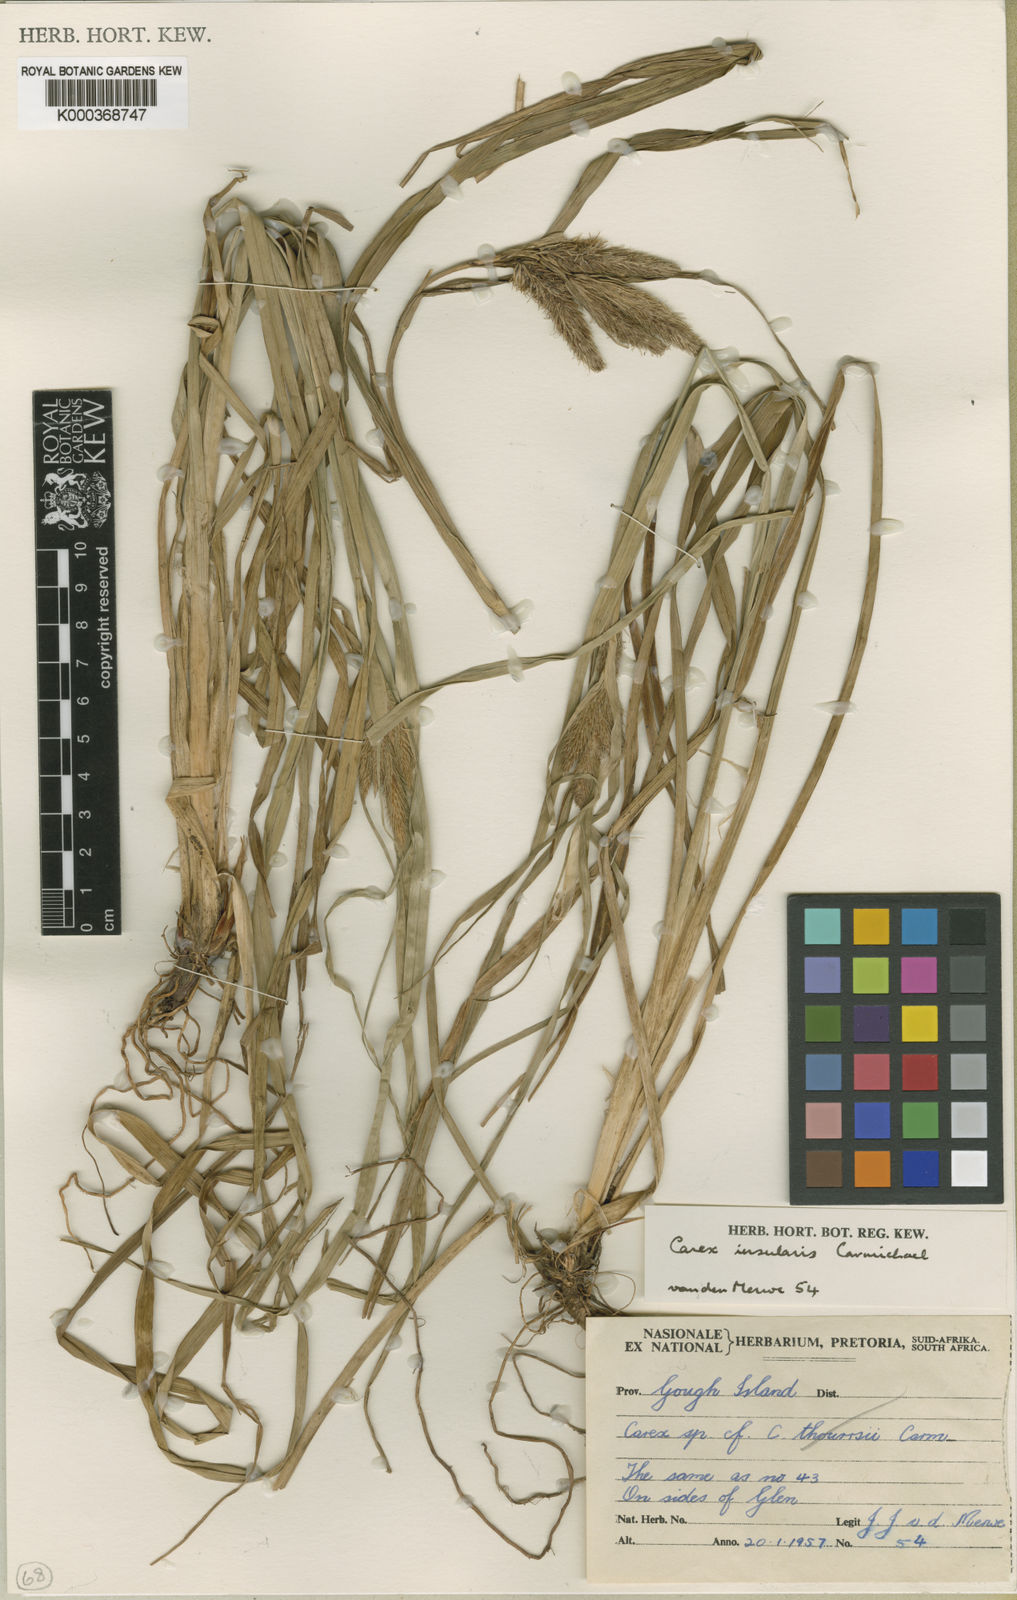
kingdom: Plantae
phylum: Tracheophyta
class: Liliopsida
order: Poales
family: Cyperaceae
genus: Carex
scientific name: Carex insularis
